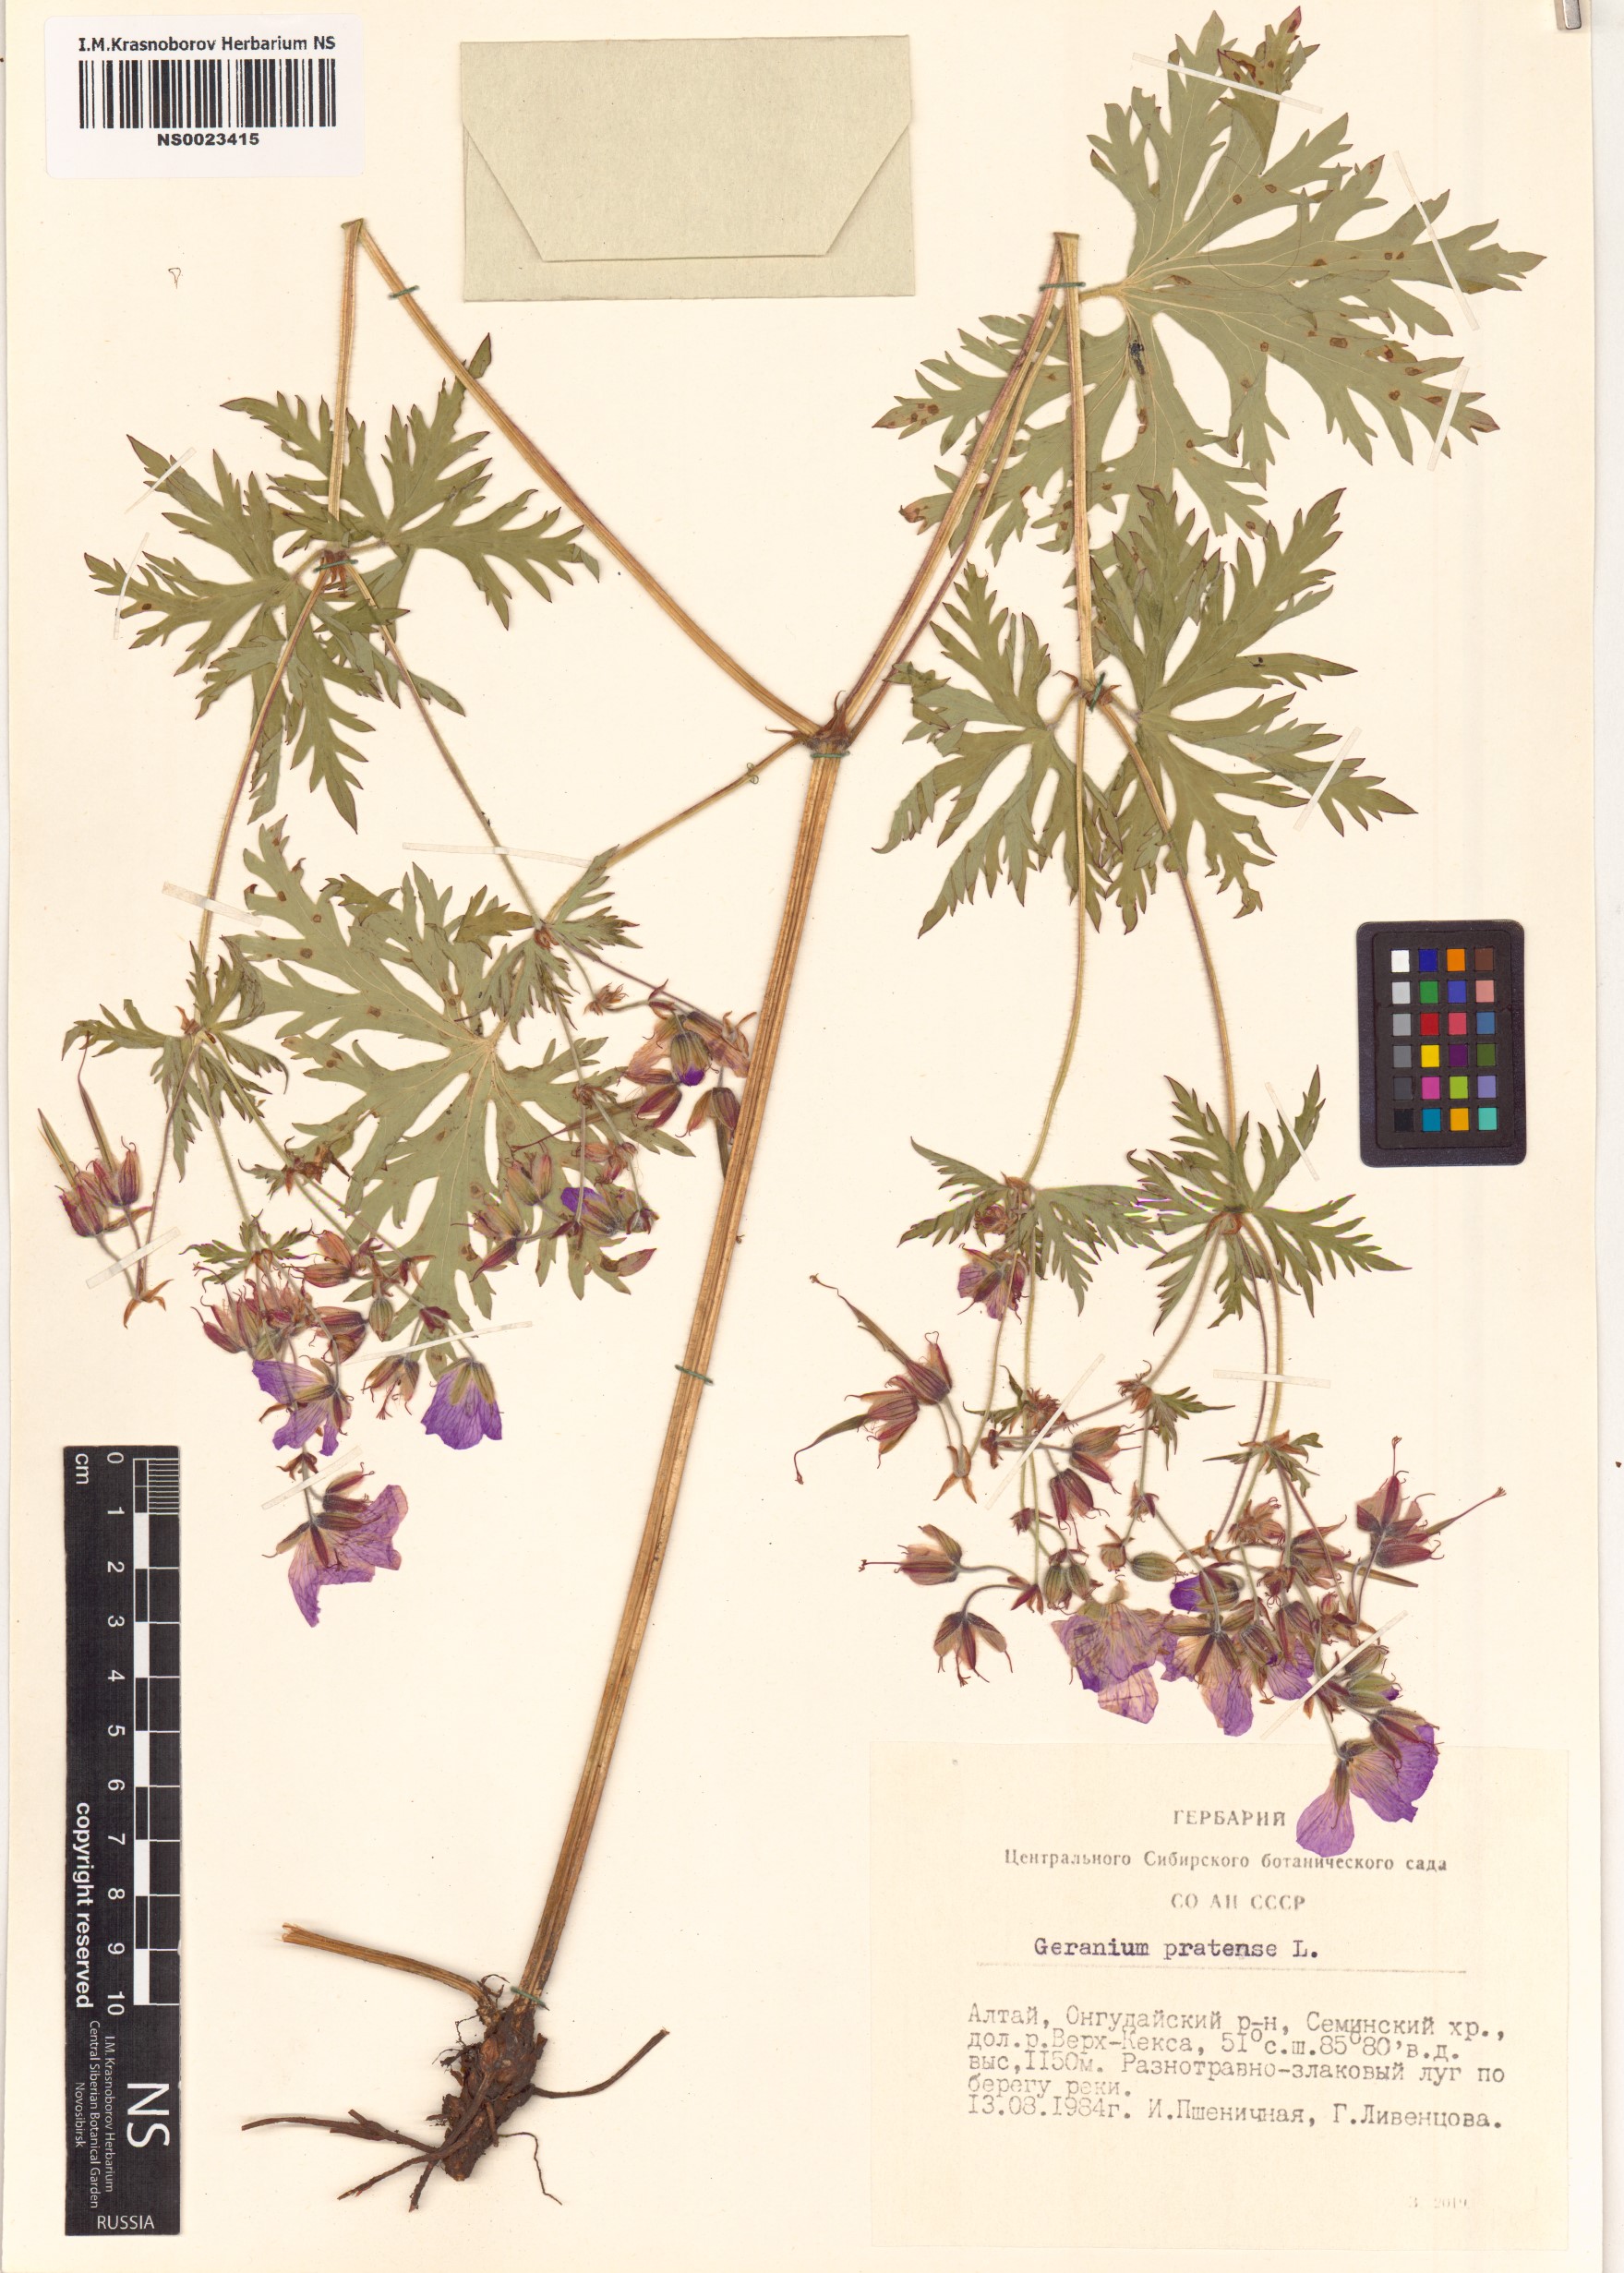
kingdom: Plantae
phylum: Tracheophyta
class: Magnoliopsida
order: Geraniales
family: Geraniaceae
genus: Geranium
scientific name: Geranium pratense
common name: Meadow crane's-bill
